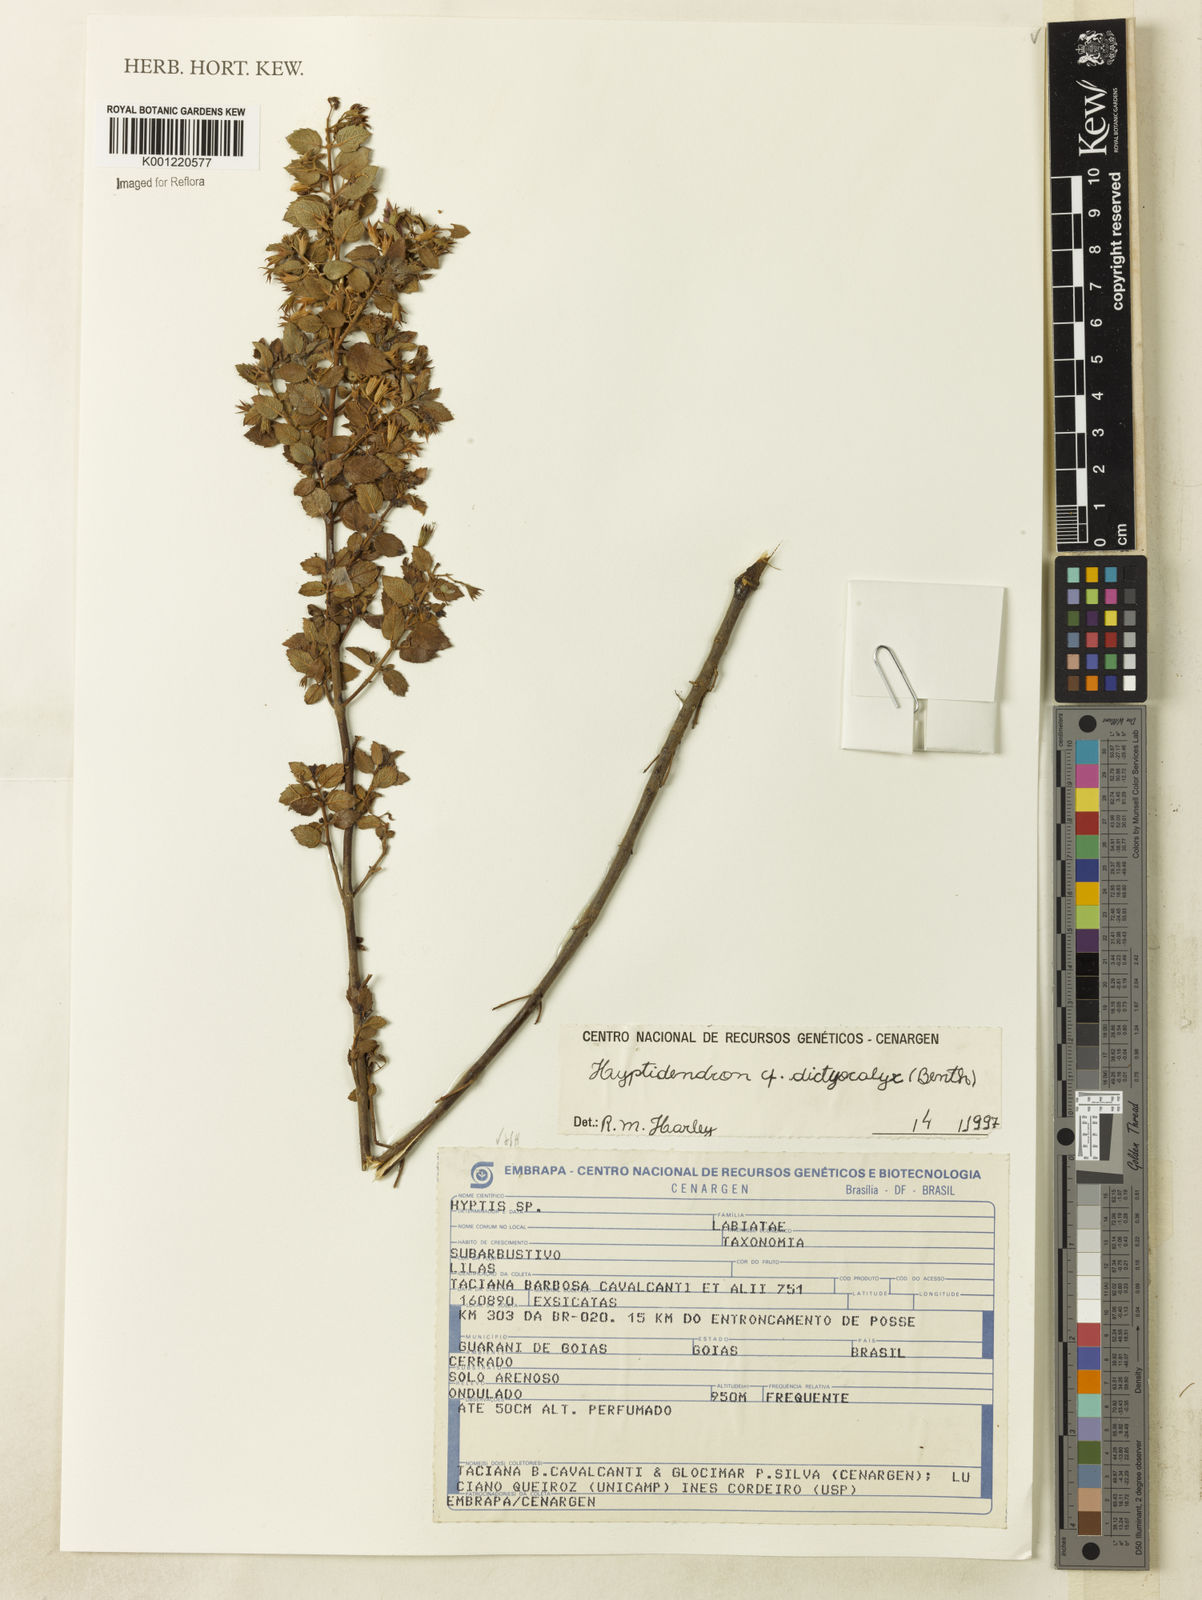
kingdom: Plantae
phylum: Tracheophyta
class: Magnoliopsida
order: Lamiales
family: Lamiaceae
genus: Hyptidendron
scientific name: Hyptidendron dictiocalyx
